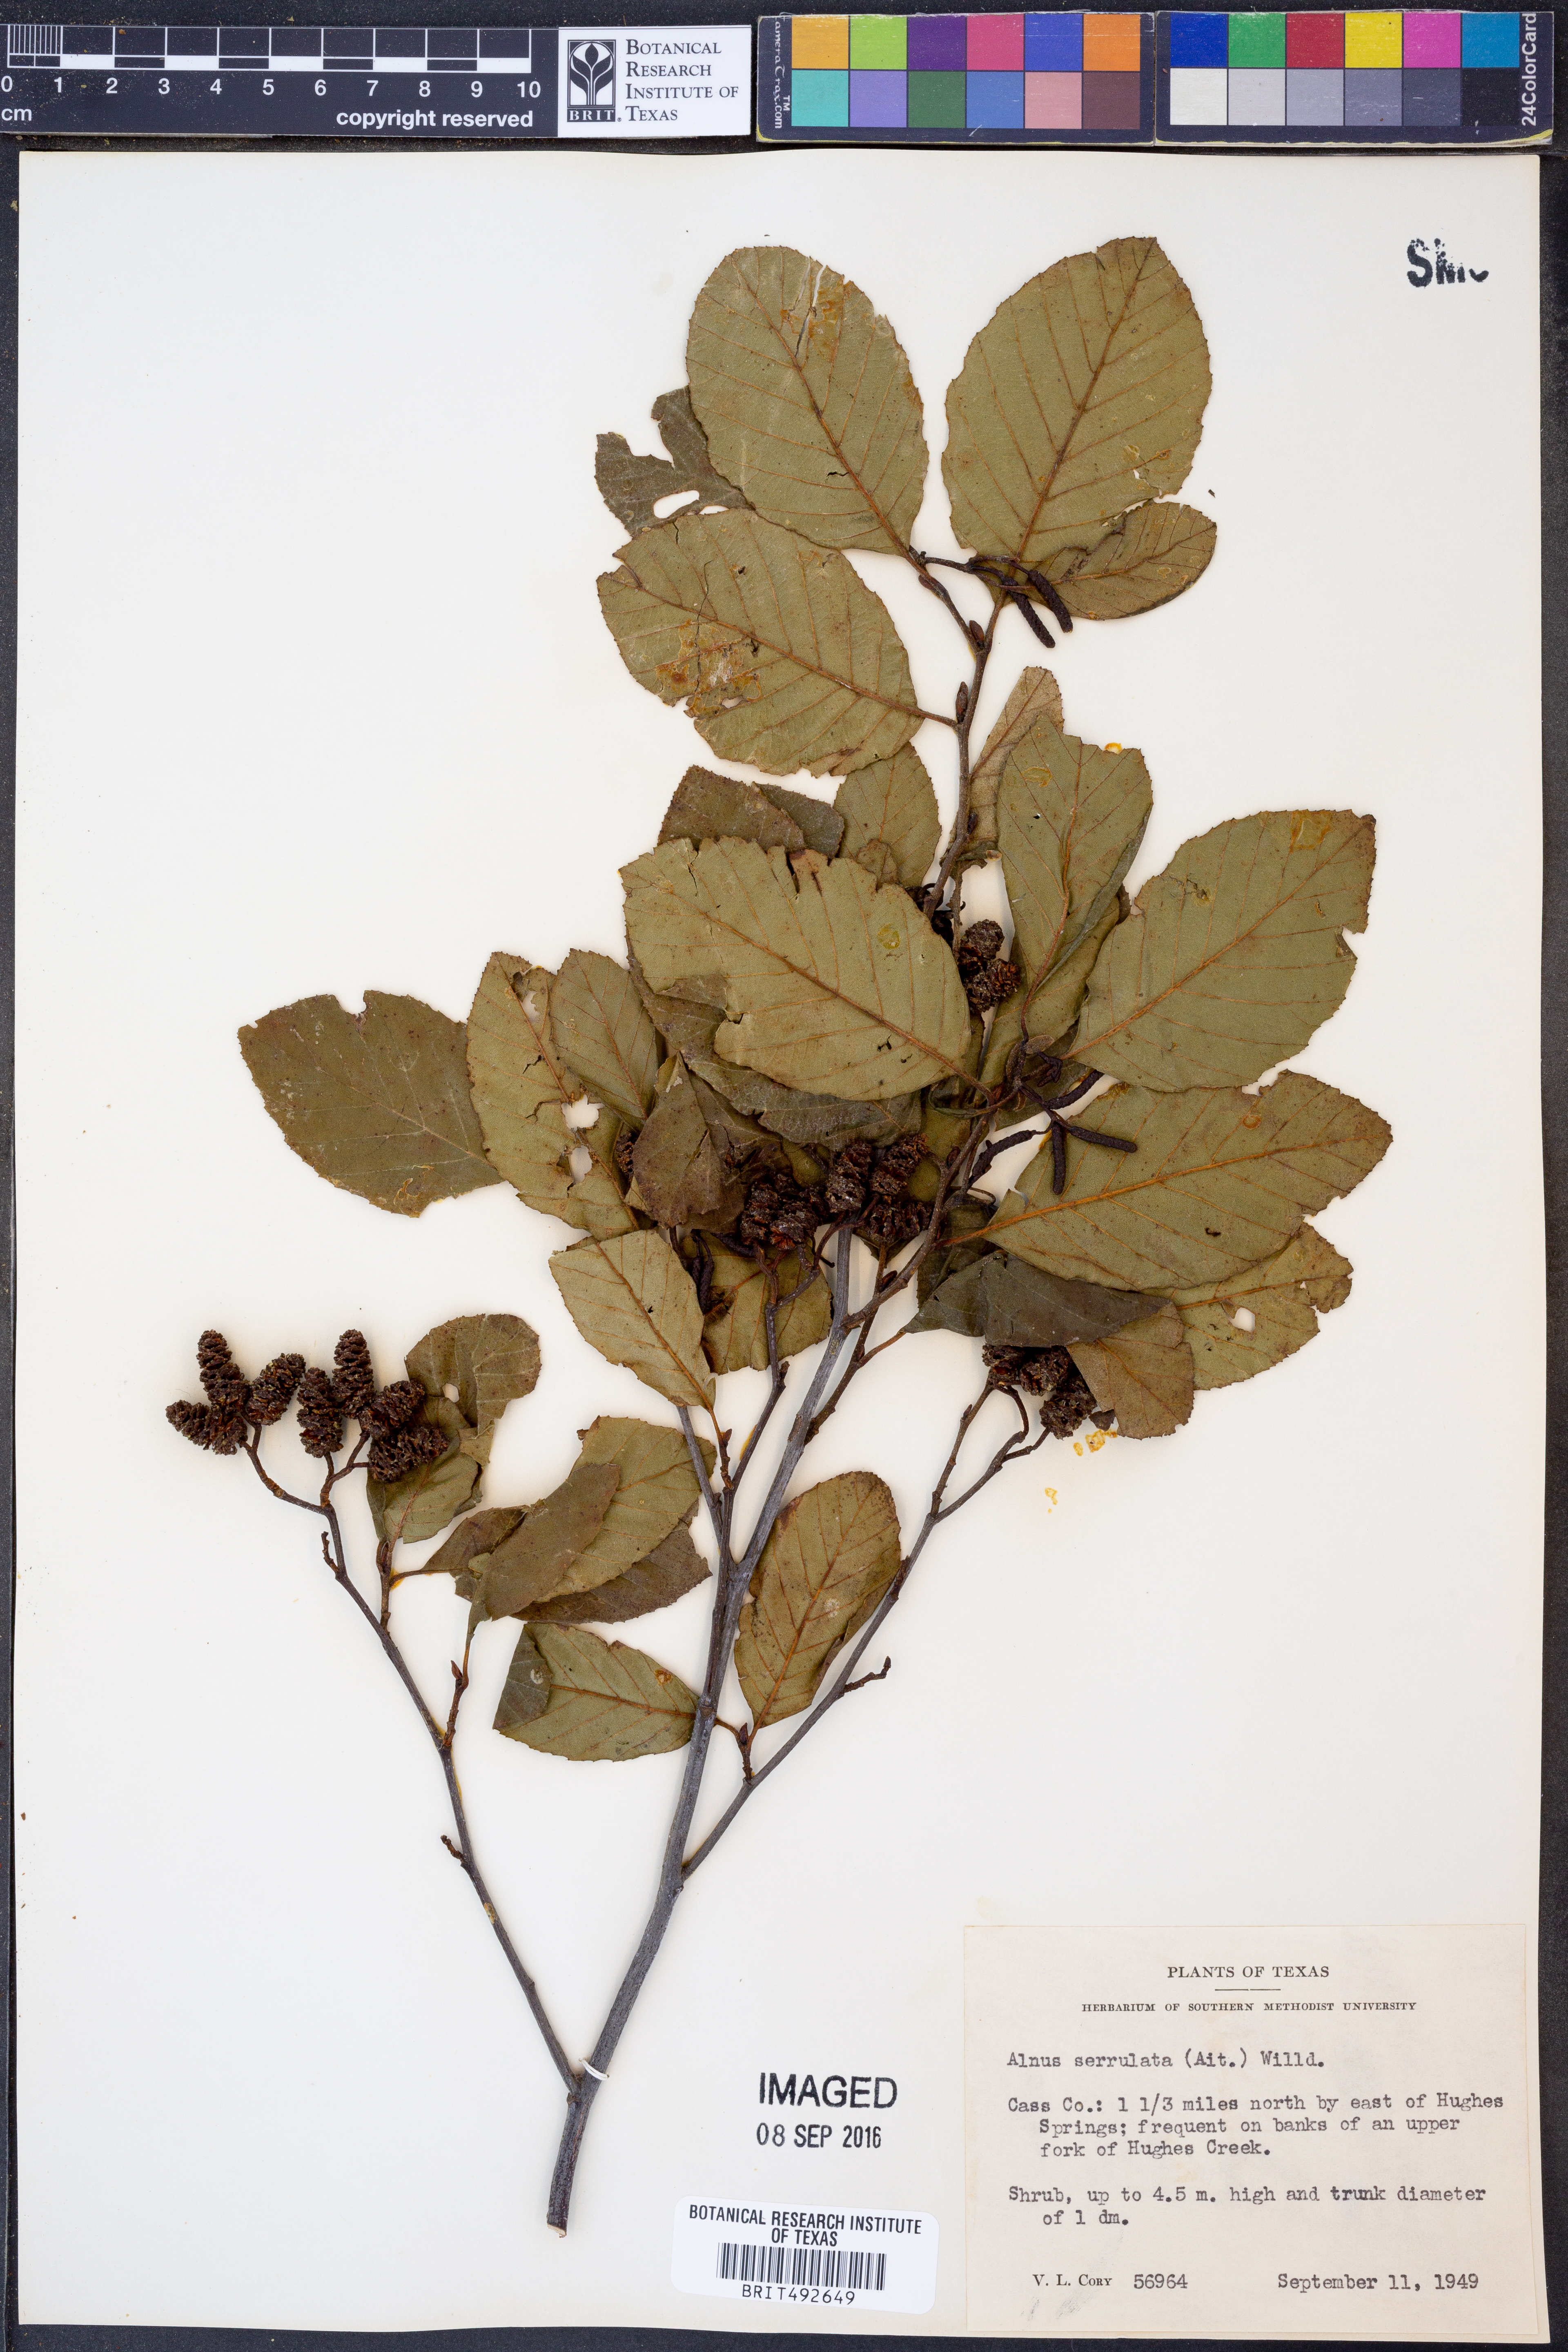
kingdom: Plantae
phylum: Tracheophyta
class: Magnoliopsida
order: Fagales
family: Betulaceae
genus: Alnus
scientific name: Alnus serrulata
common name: Hazel alder
